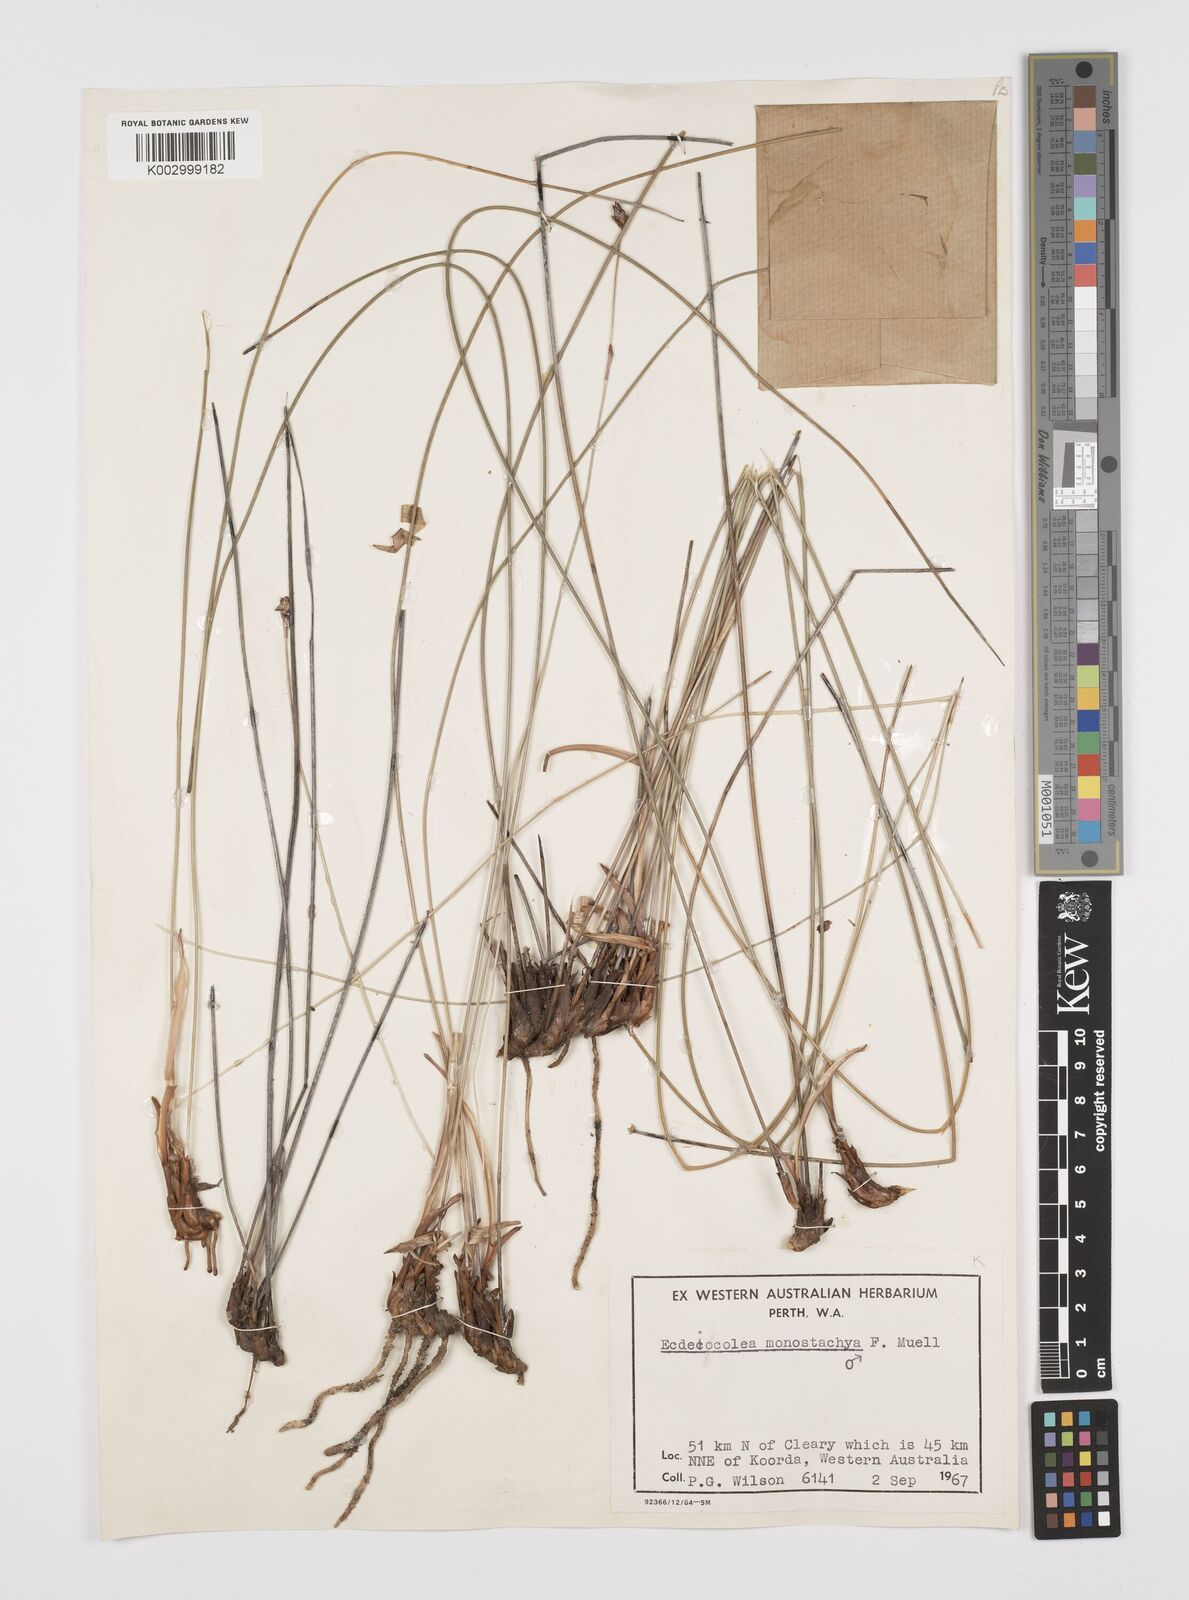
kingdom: Plantae
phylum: Tracheophyta
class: Liliopsida
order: Poales
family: Ecdeiocoleaceae
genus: Ecdeiocolea
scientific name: Ecdeiocolea monostachya
